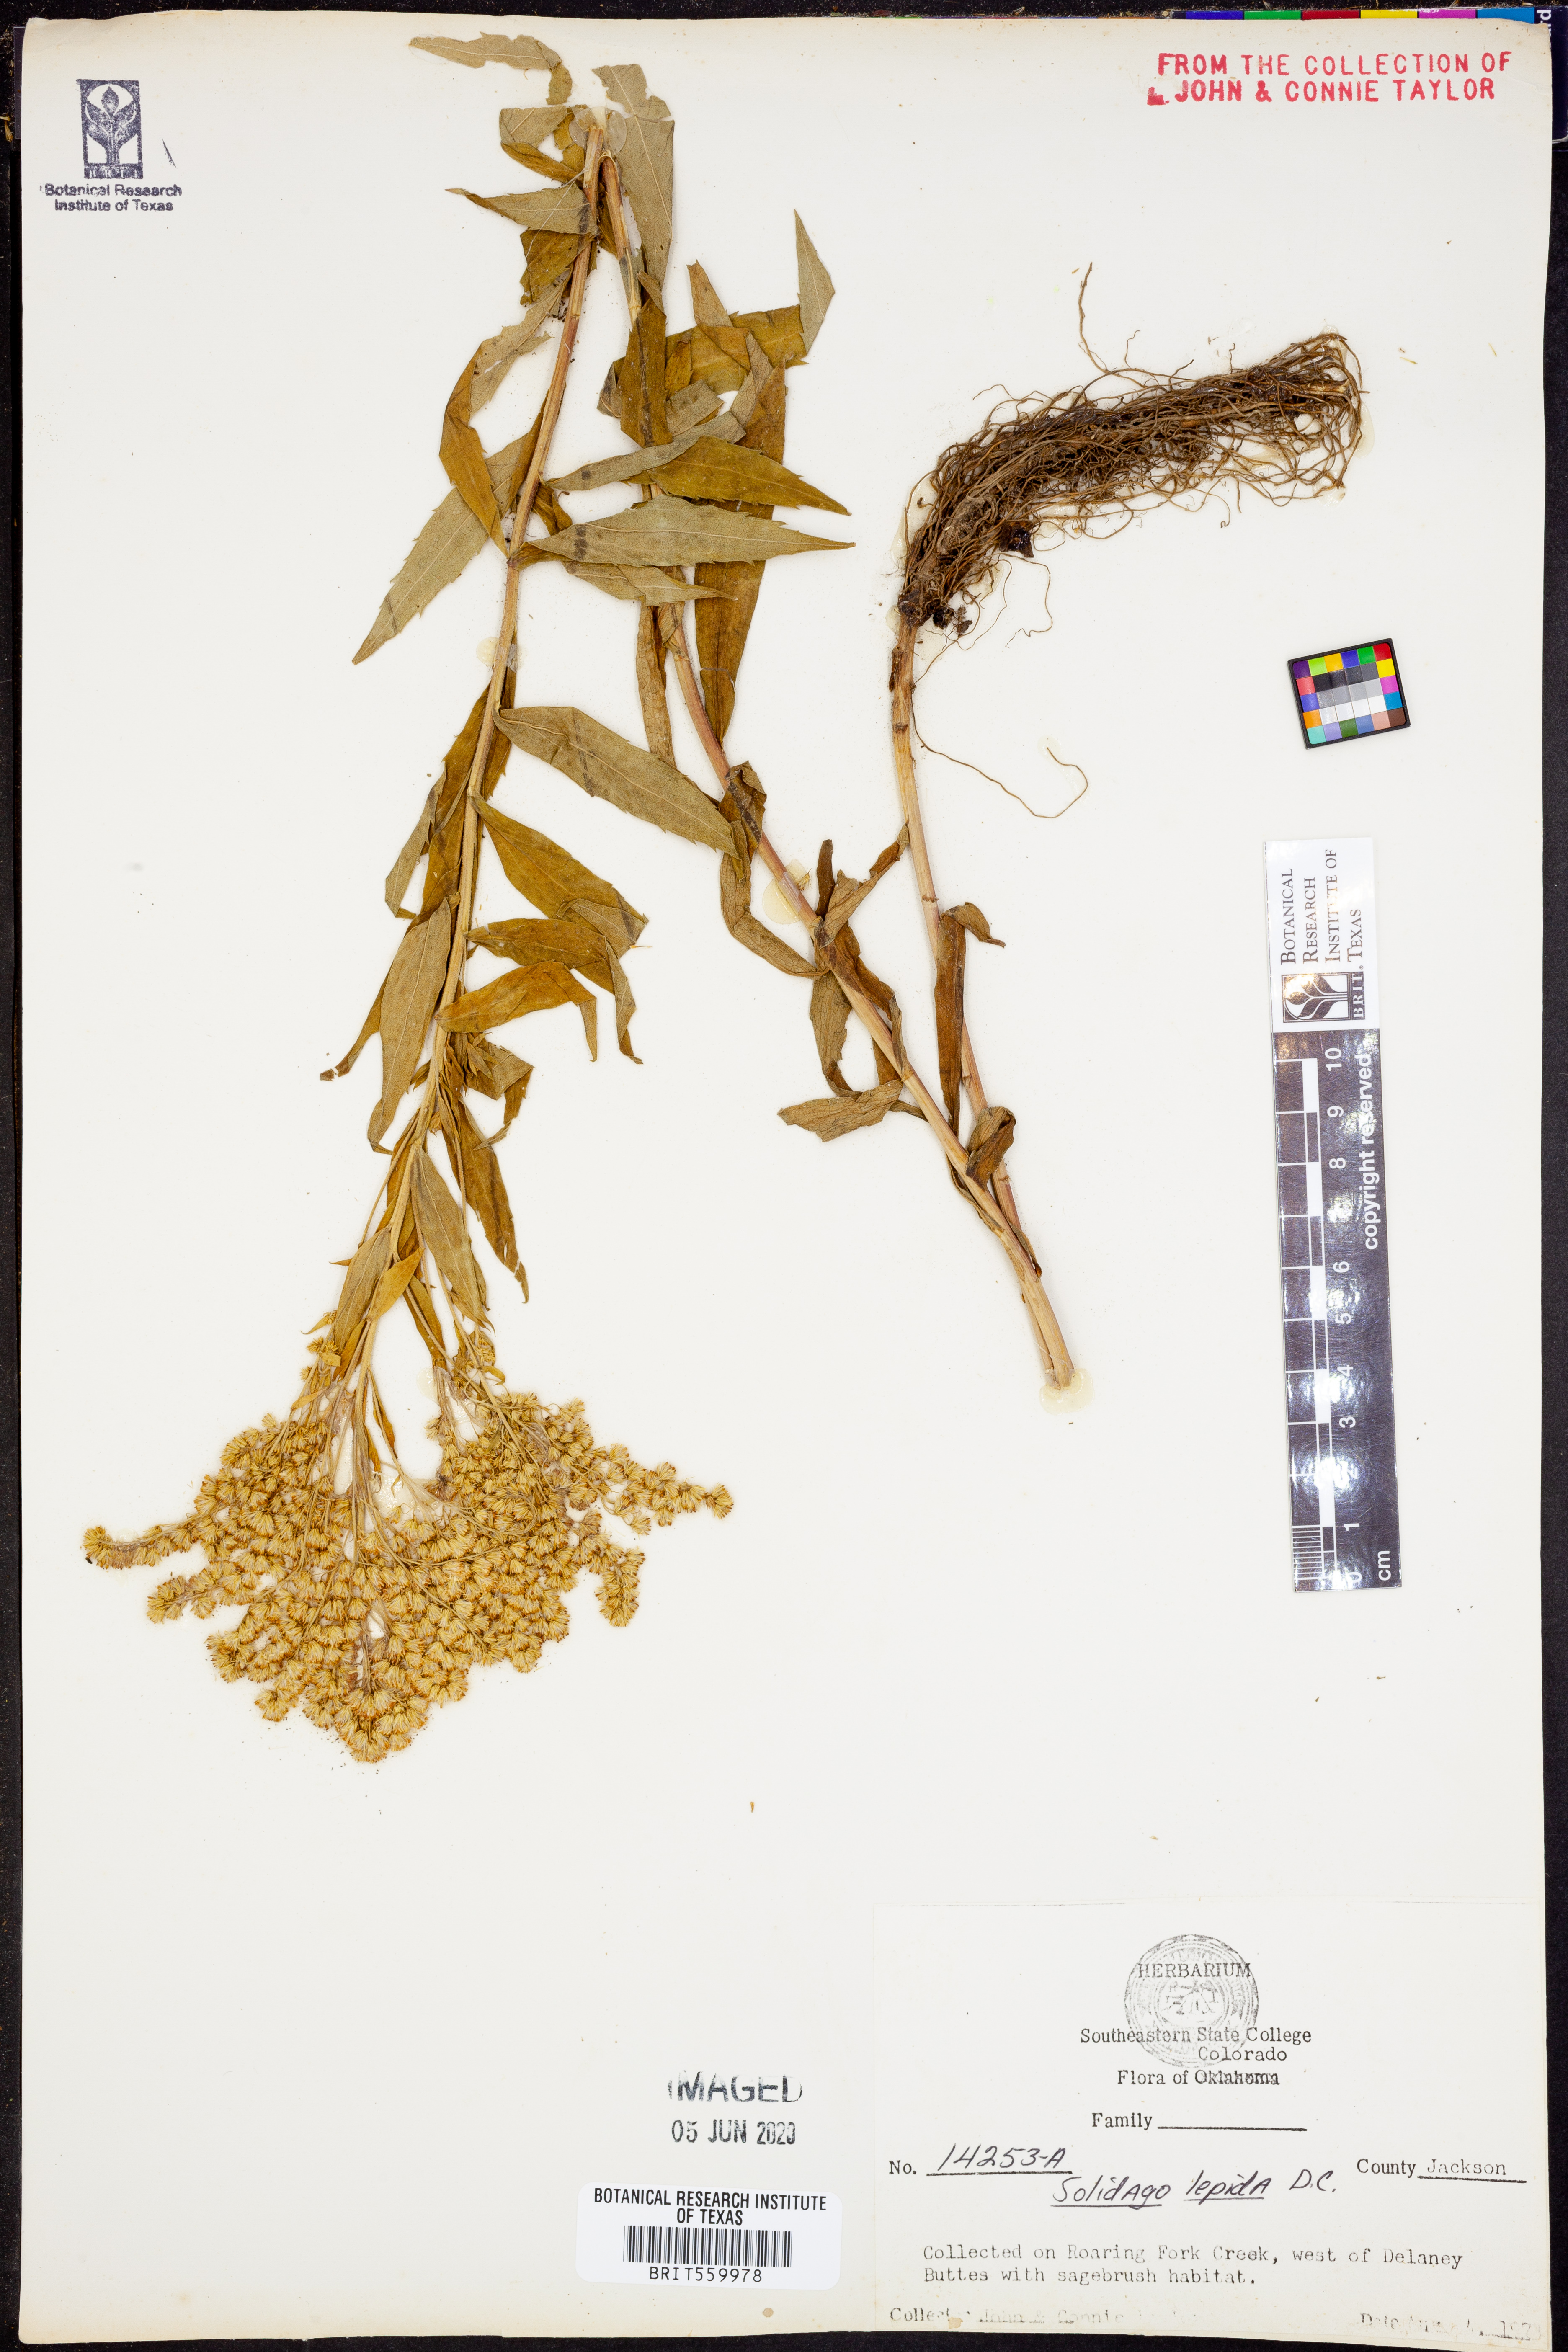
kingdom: Plantae
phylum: Tracheophyta
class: Magnoliopsida
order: Asterales
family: Asteraceae
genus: Solidago
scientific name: Solidago lepida
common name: Western canada goldenrod
